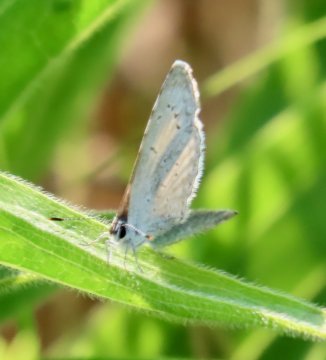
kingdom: Animalia
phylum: Arthropoda
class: Insecta
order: Lepidoptera
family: Lycaenidae
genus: Cyaniris
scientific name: Cyaniris neglecta
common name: Summer Azure
